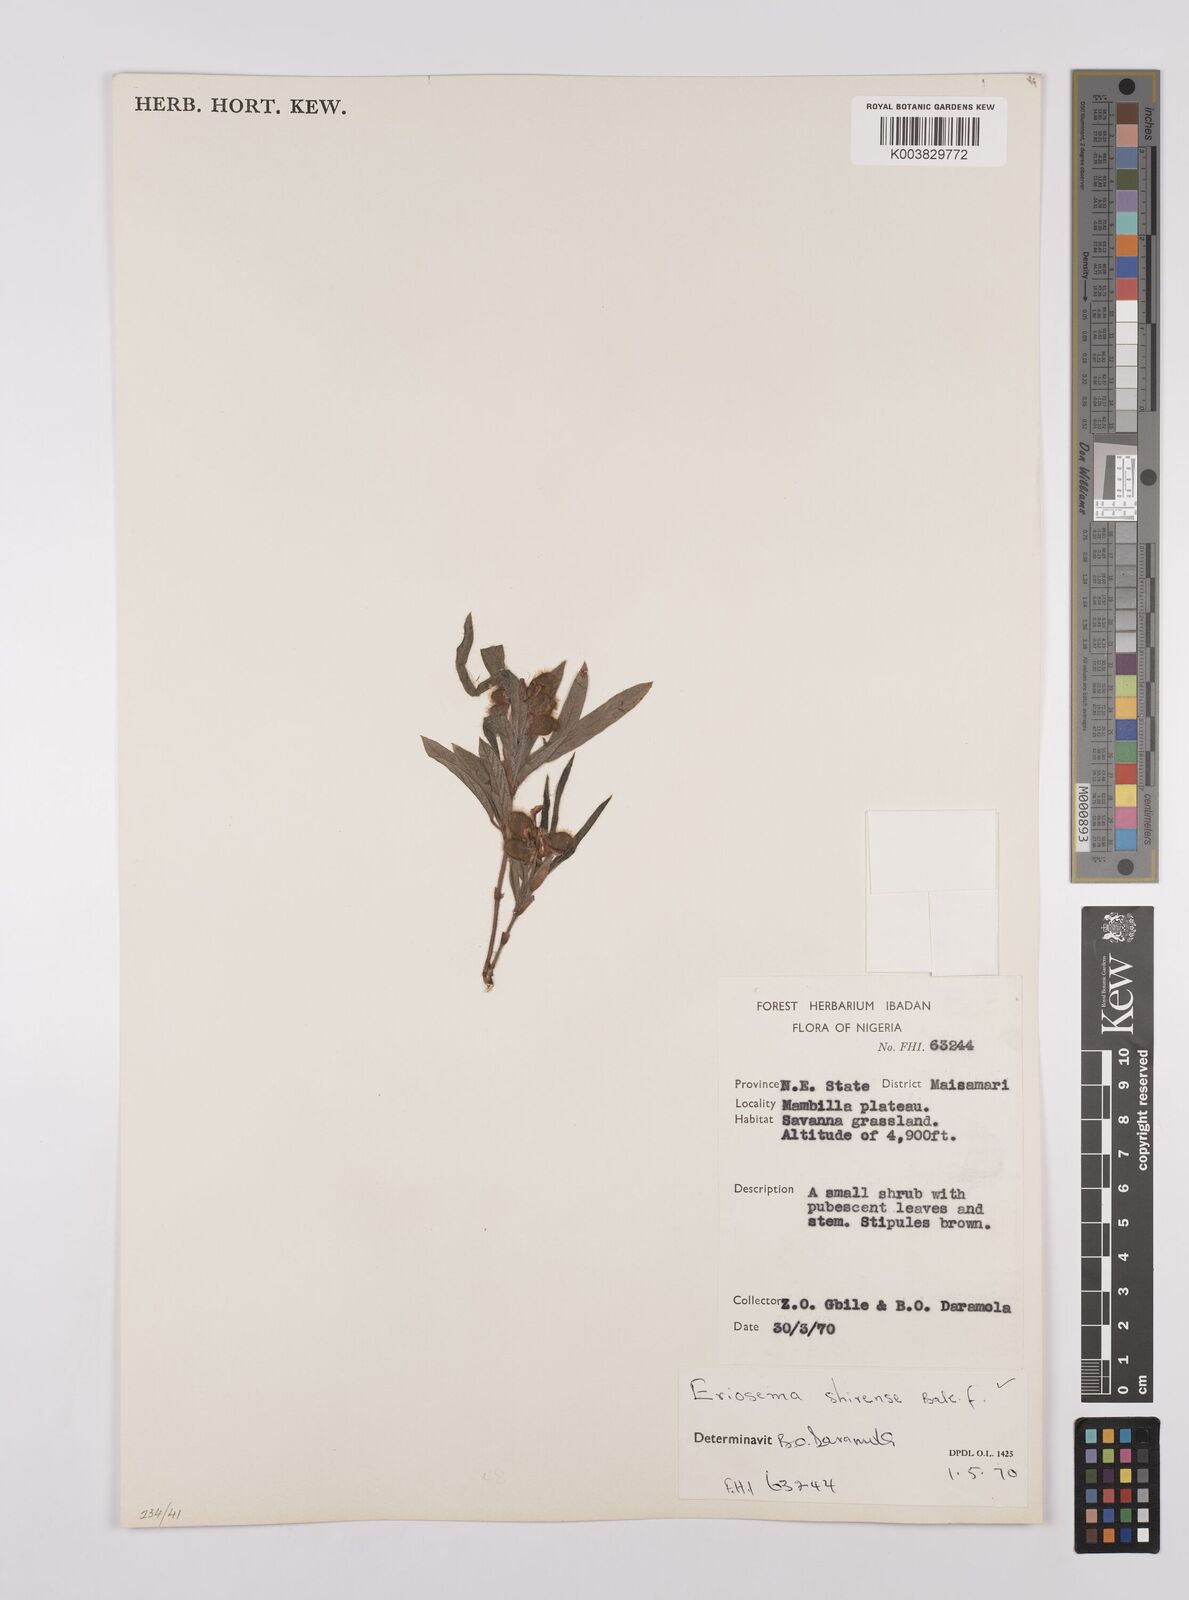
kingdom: Plantae
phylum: Tracheophyta
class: Magnoliopsida
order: Fabales
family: Fabaceae
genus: Eriosema
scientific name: Eriosema bauchiense
